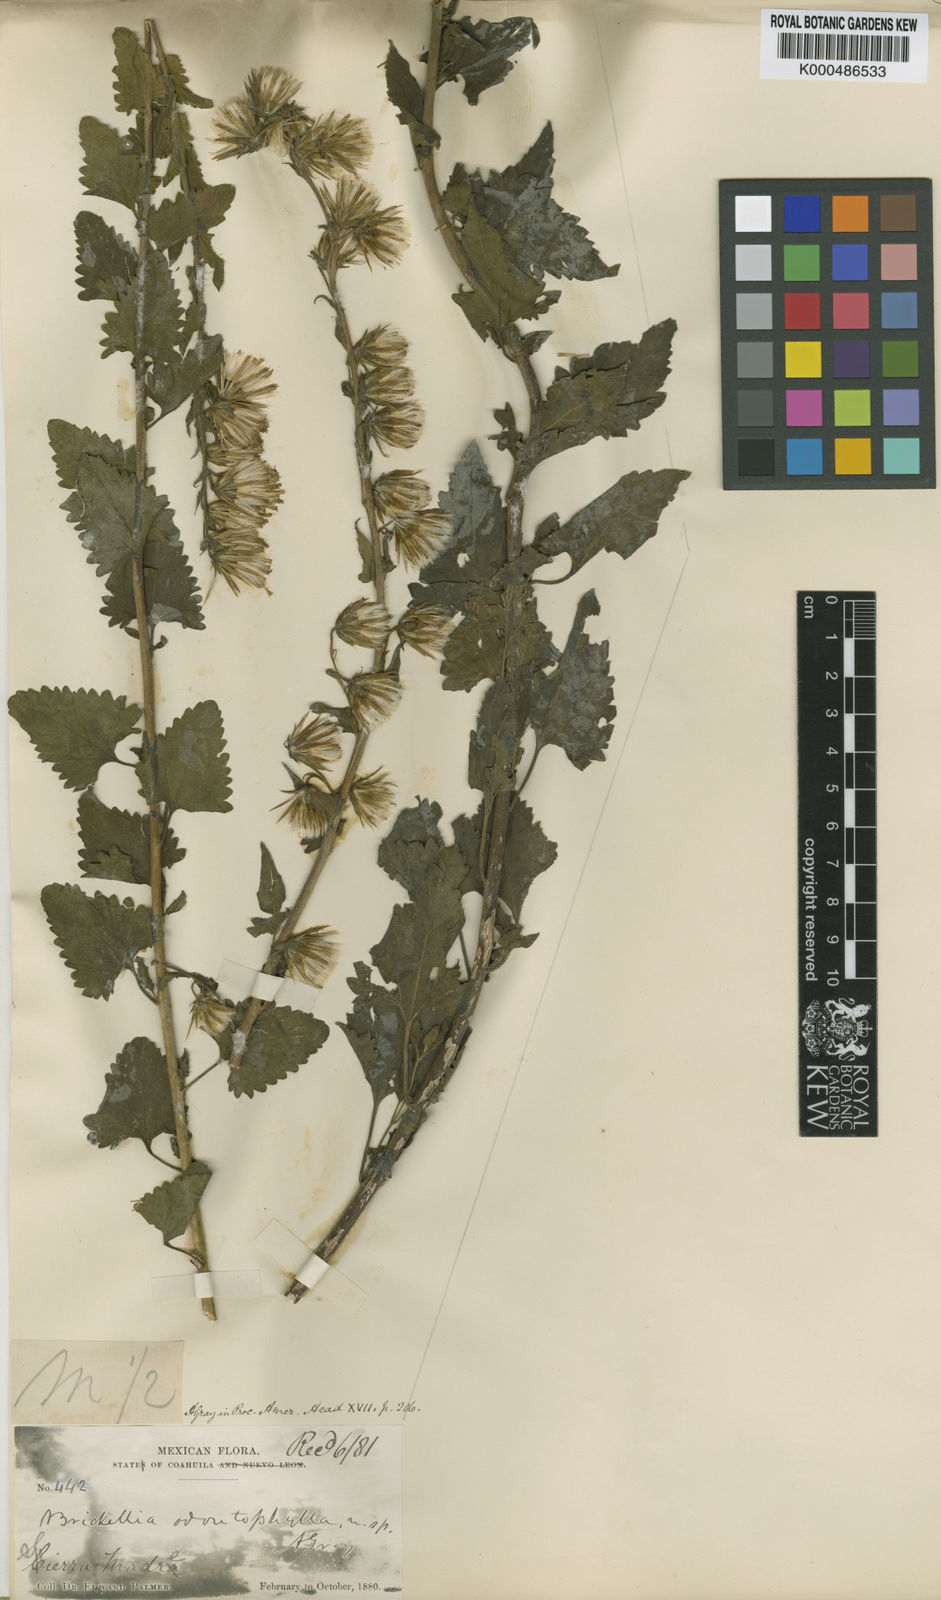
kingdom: Plantae
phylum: Tracheophyta
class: Magnoliopsida
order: Asterales
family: Asteraceae
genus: Brickellia
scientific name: Brickellia odontophylla
